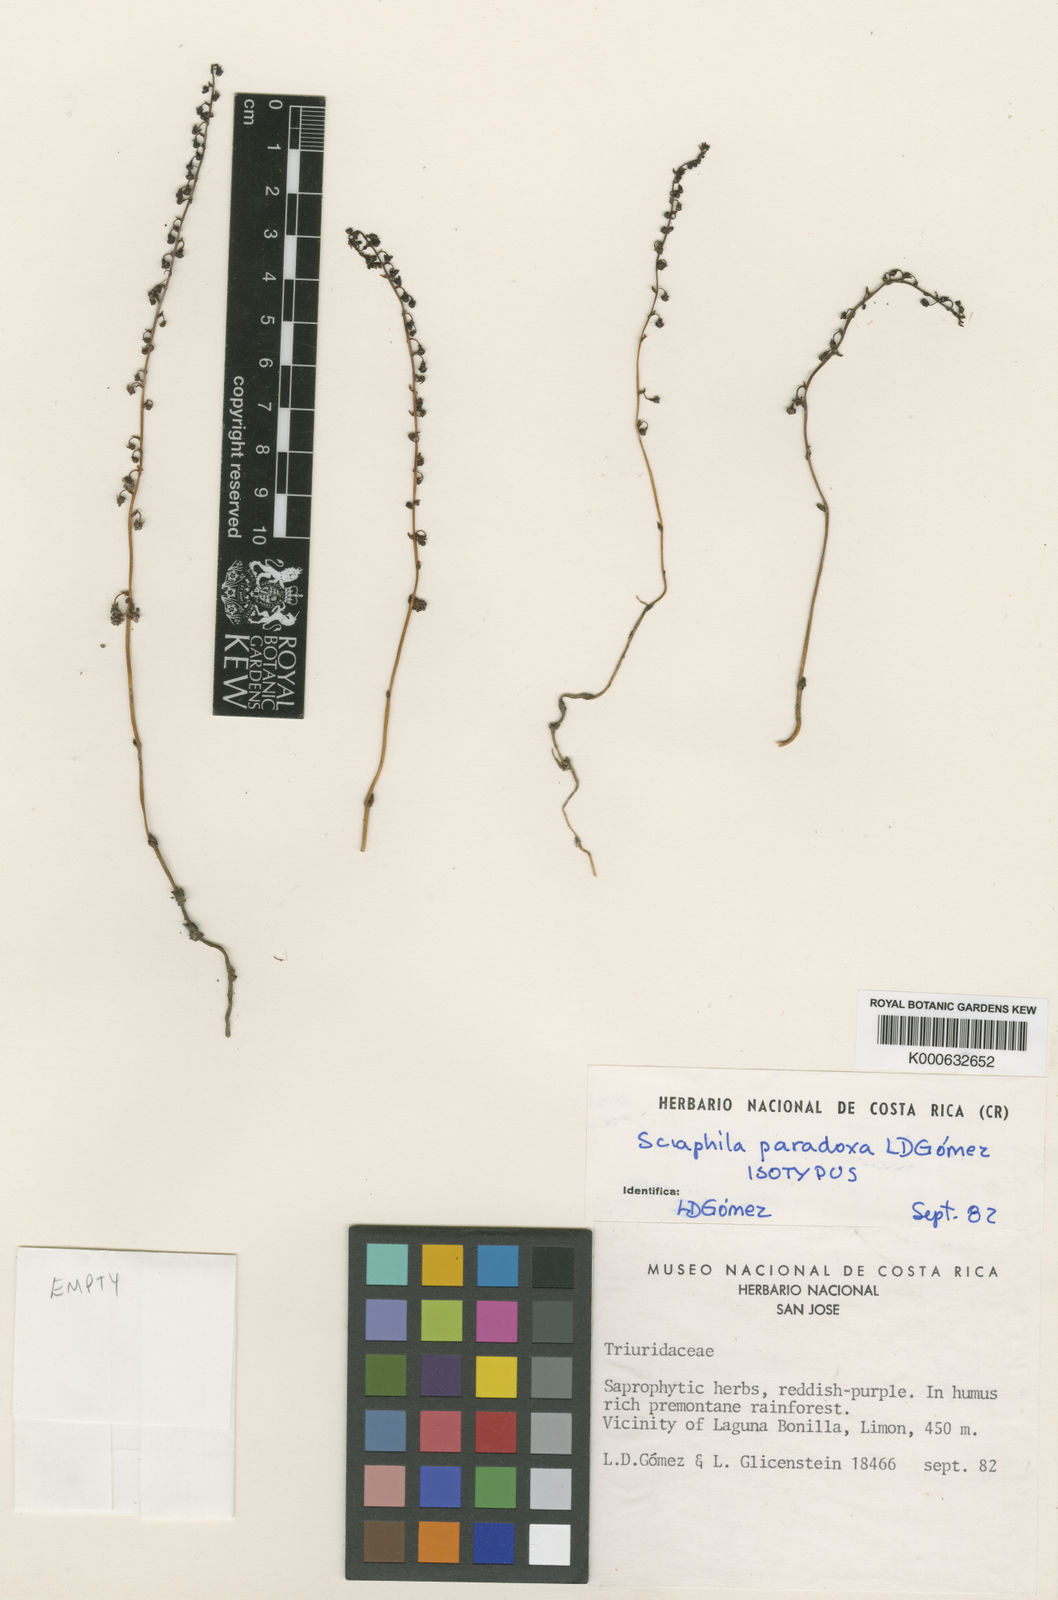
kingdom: Plantae
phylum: Tracheophyta
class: Liliopsida
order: Pandanales
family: Triuridaceae
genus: Sciaphila
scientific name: Sciaphila
